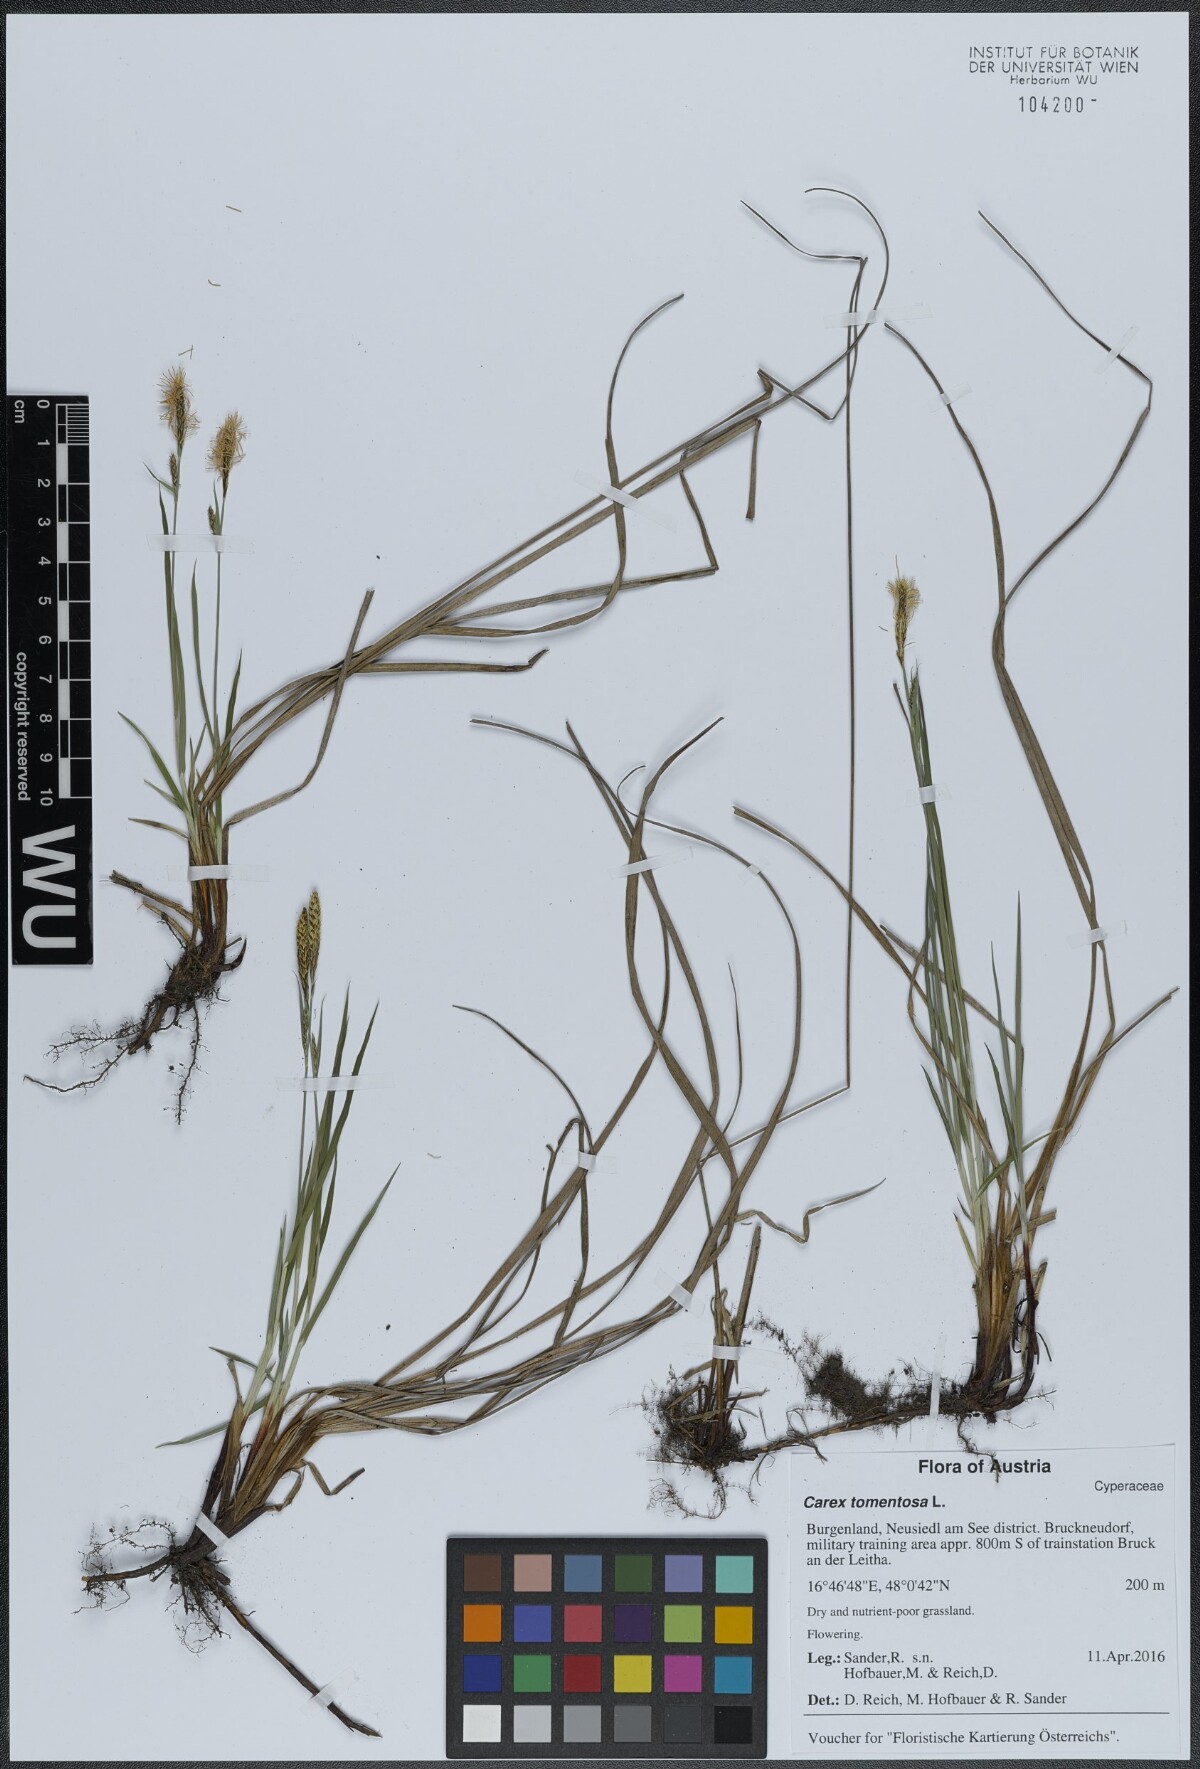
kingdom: Plantae
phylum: Tracheophyta
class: Liliopsida
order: Poales
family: Cyperaceae
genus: Carex
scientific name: Carex tomentosa
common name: Downy-fruited sedge
